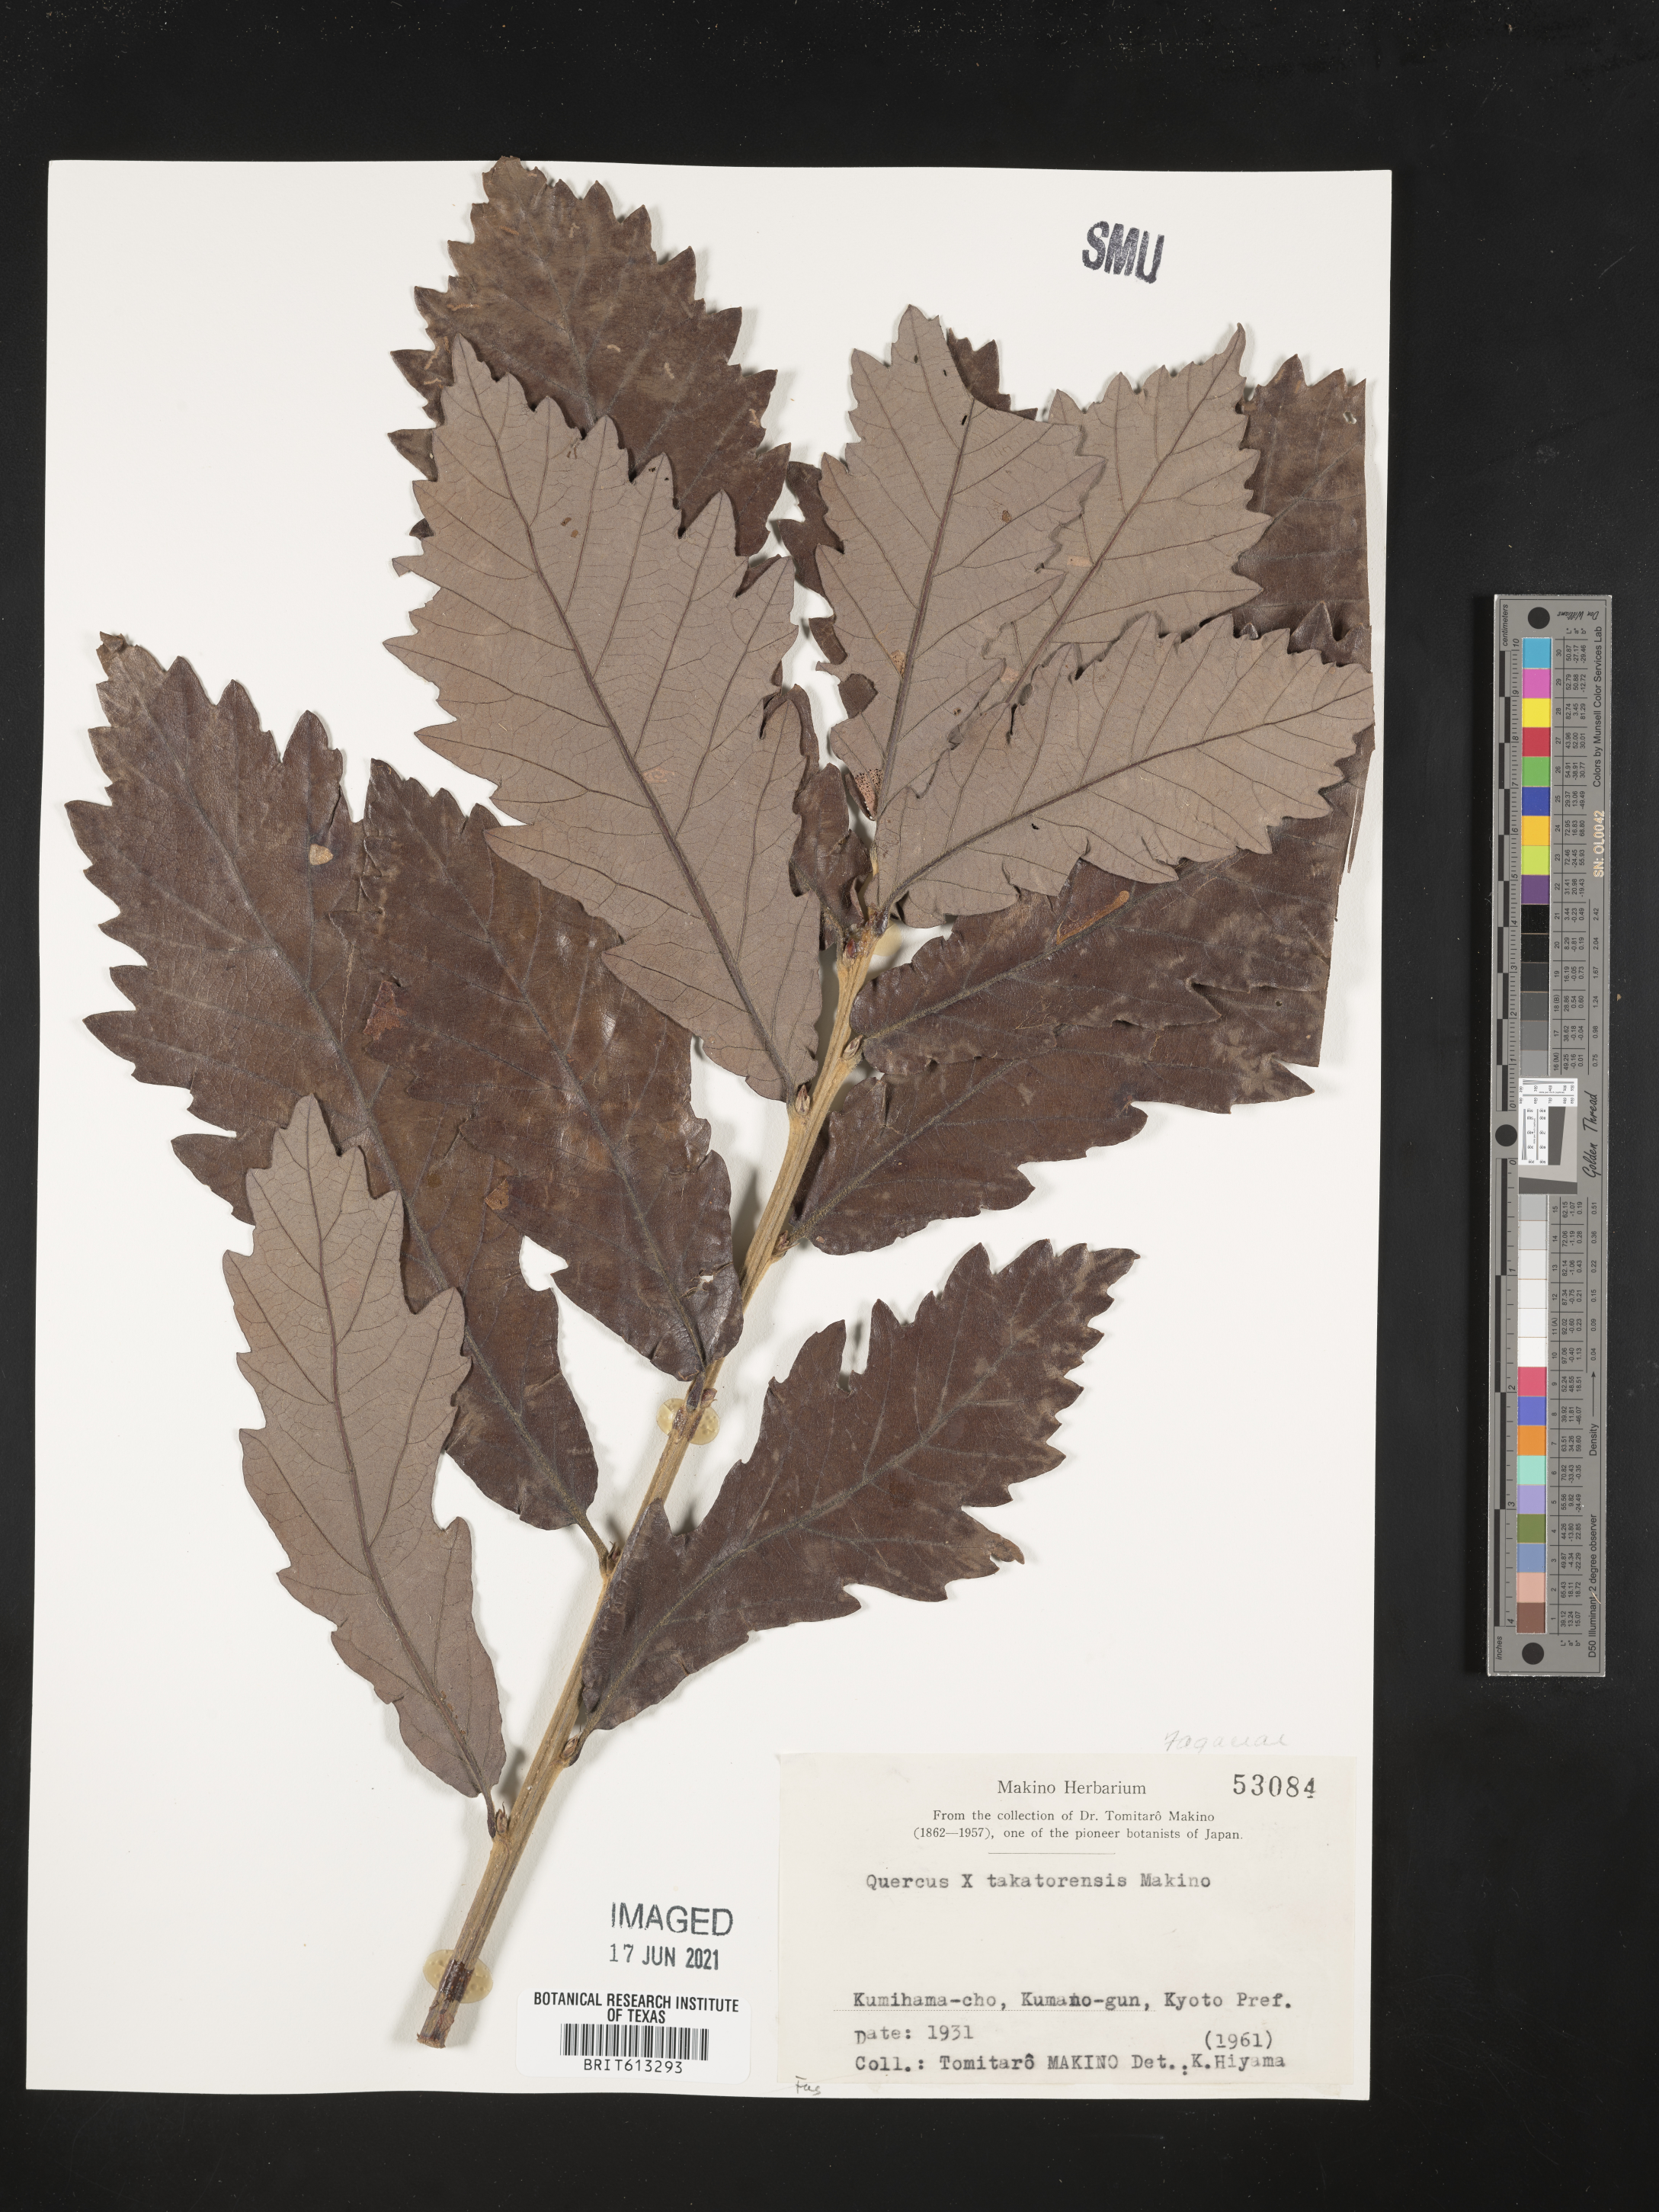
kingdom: Plantae
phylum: Tracheophyta
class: Magnoliopsida
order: Fagales
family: Fagaceae
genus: Quercus
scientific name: Quercus takatorensis
